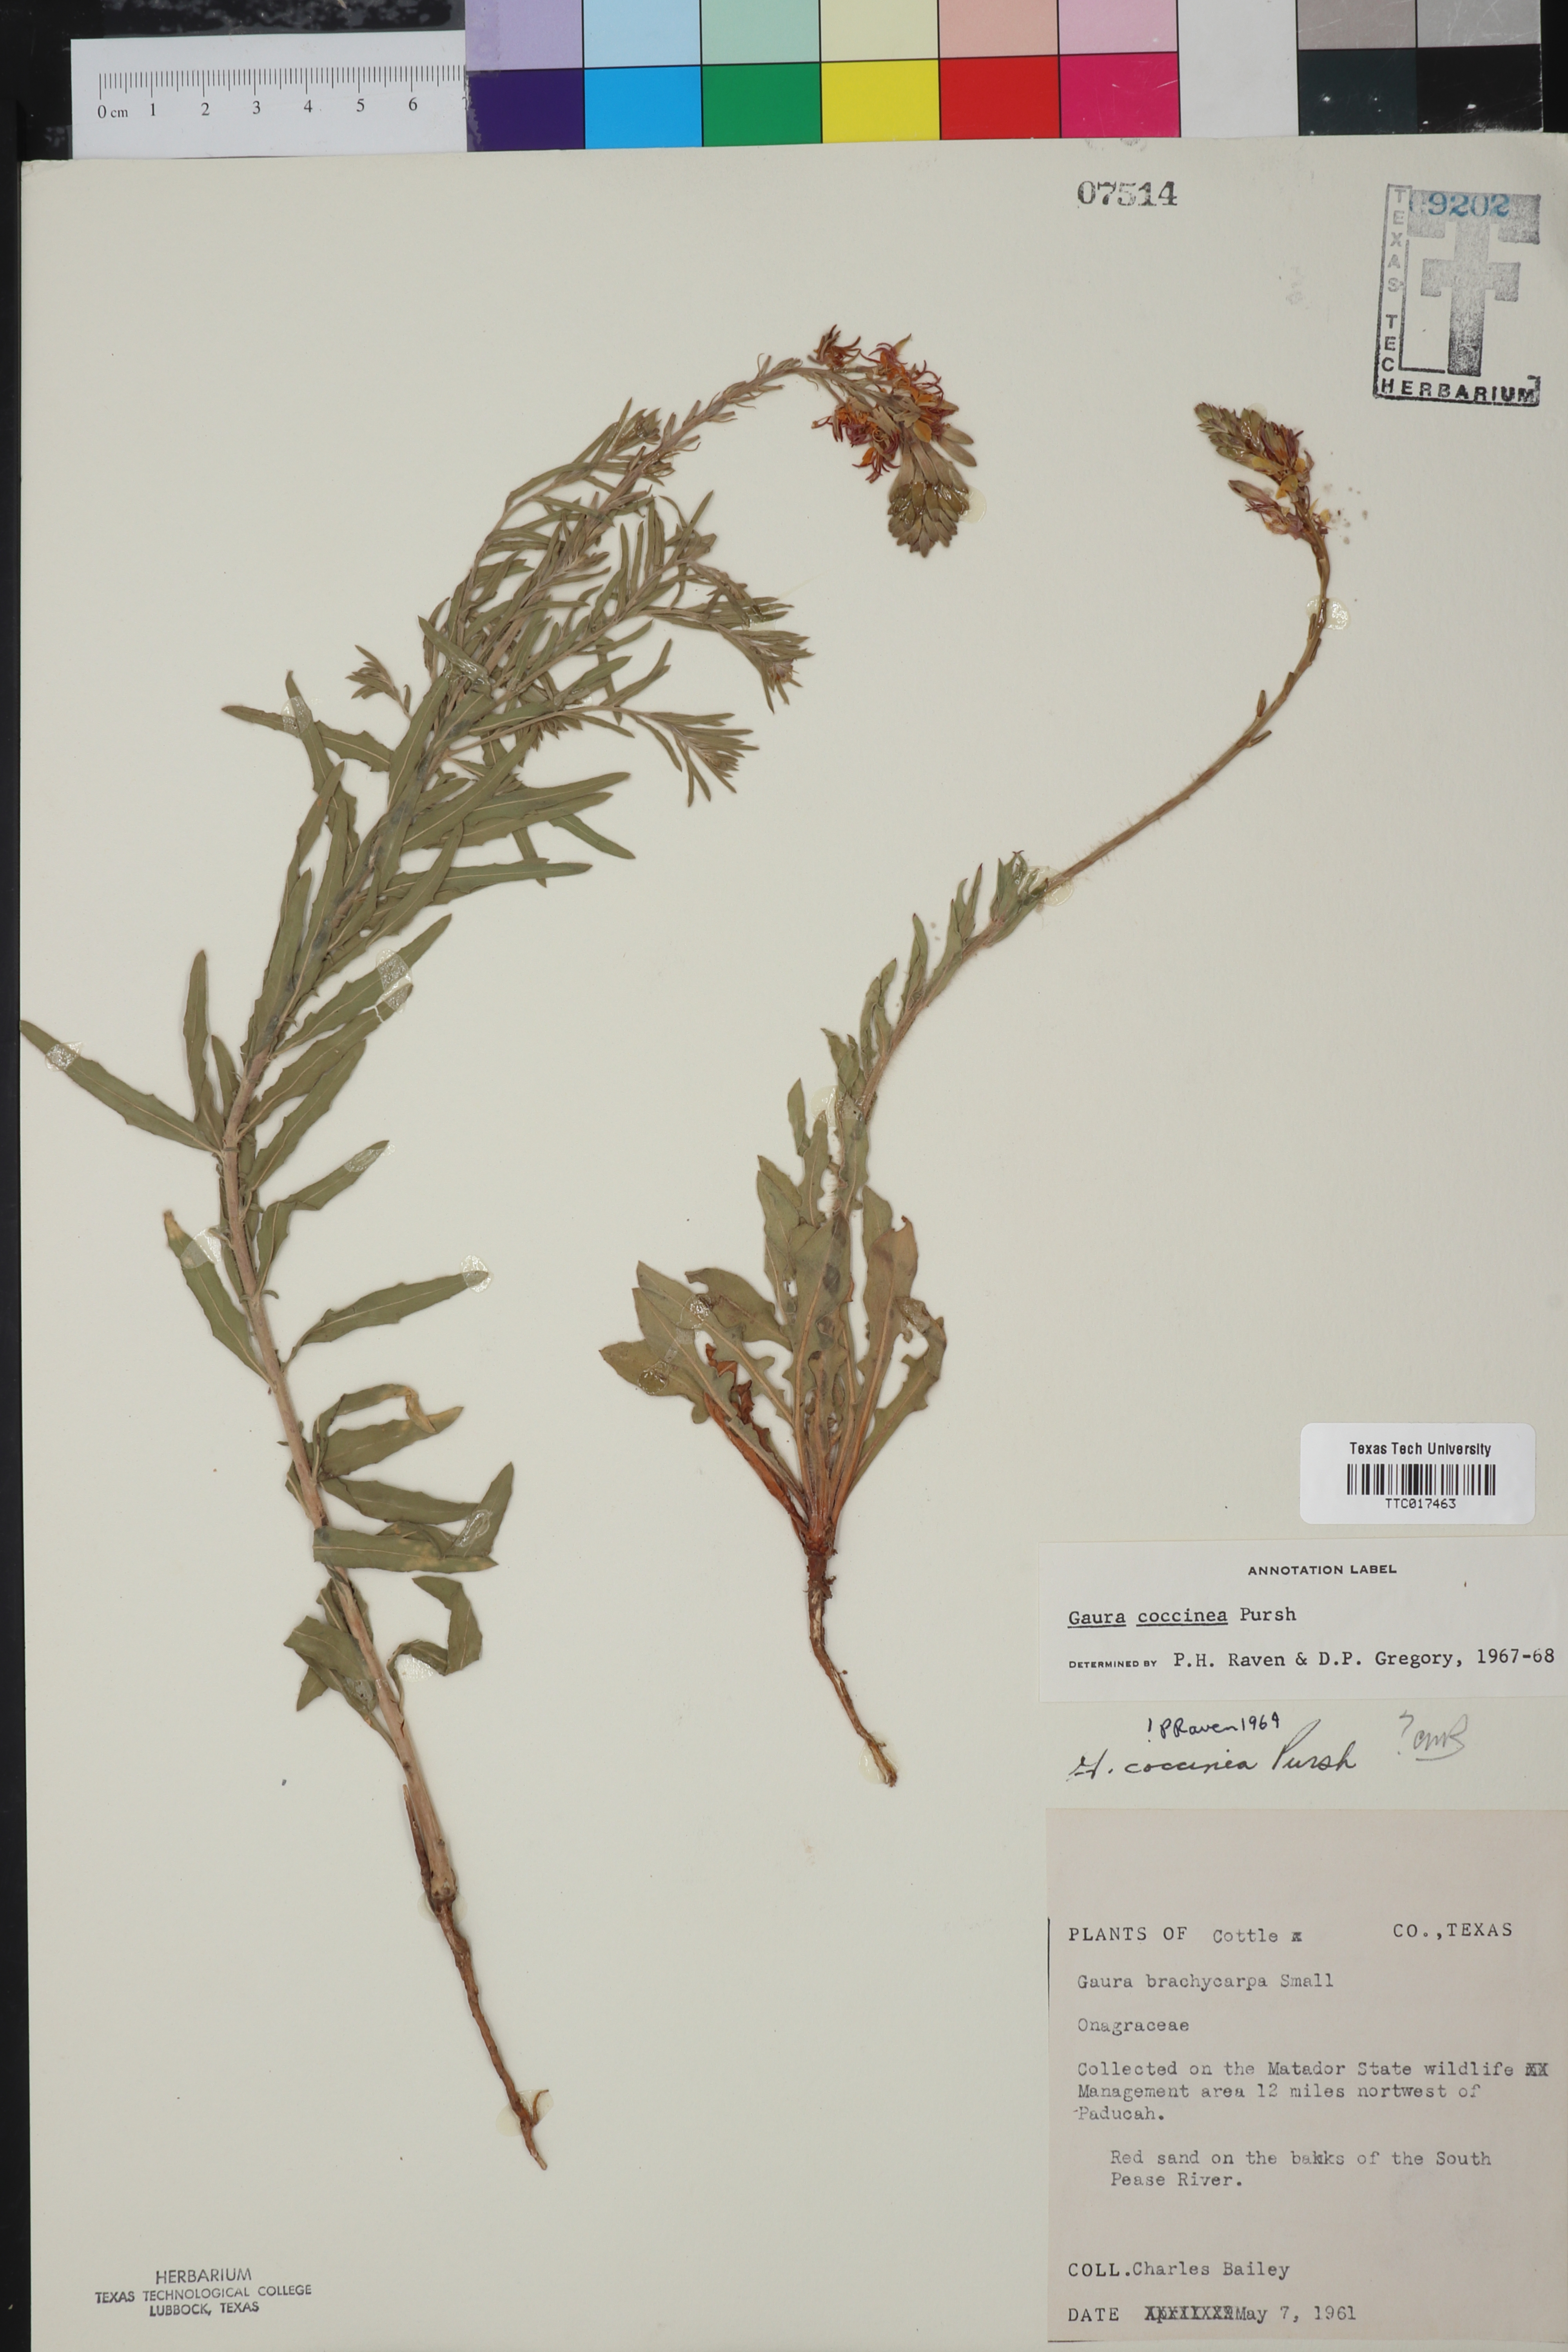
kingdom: Plantae
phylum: Tracheophyta
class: Magnoliopsida
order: Myrtales
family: Onagraceae
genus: Oenothera
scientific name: Oenothera suffrutescens
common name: Scarlet beeblossom
